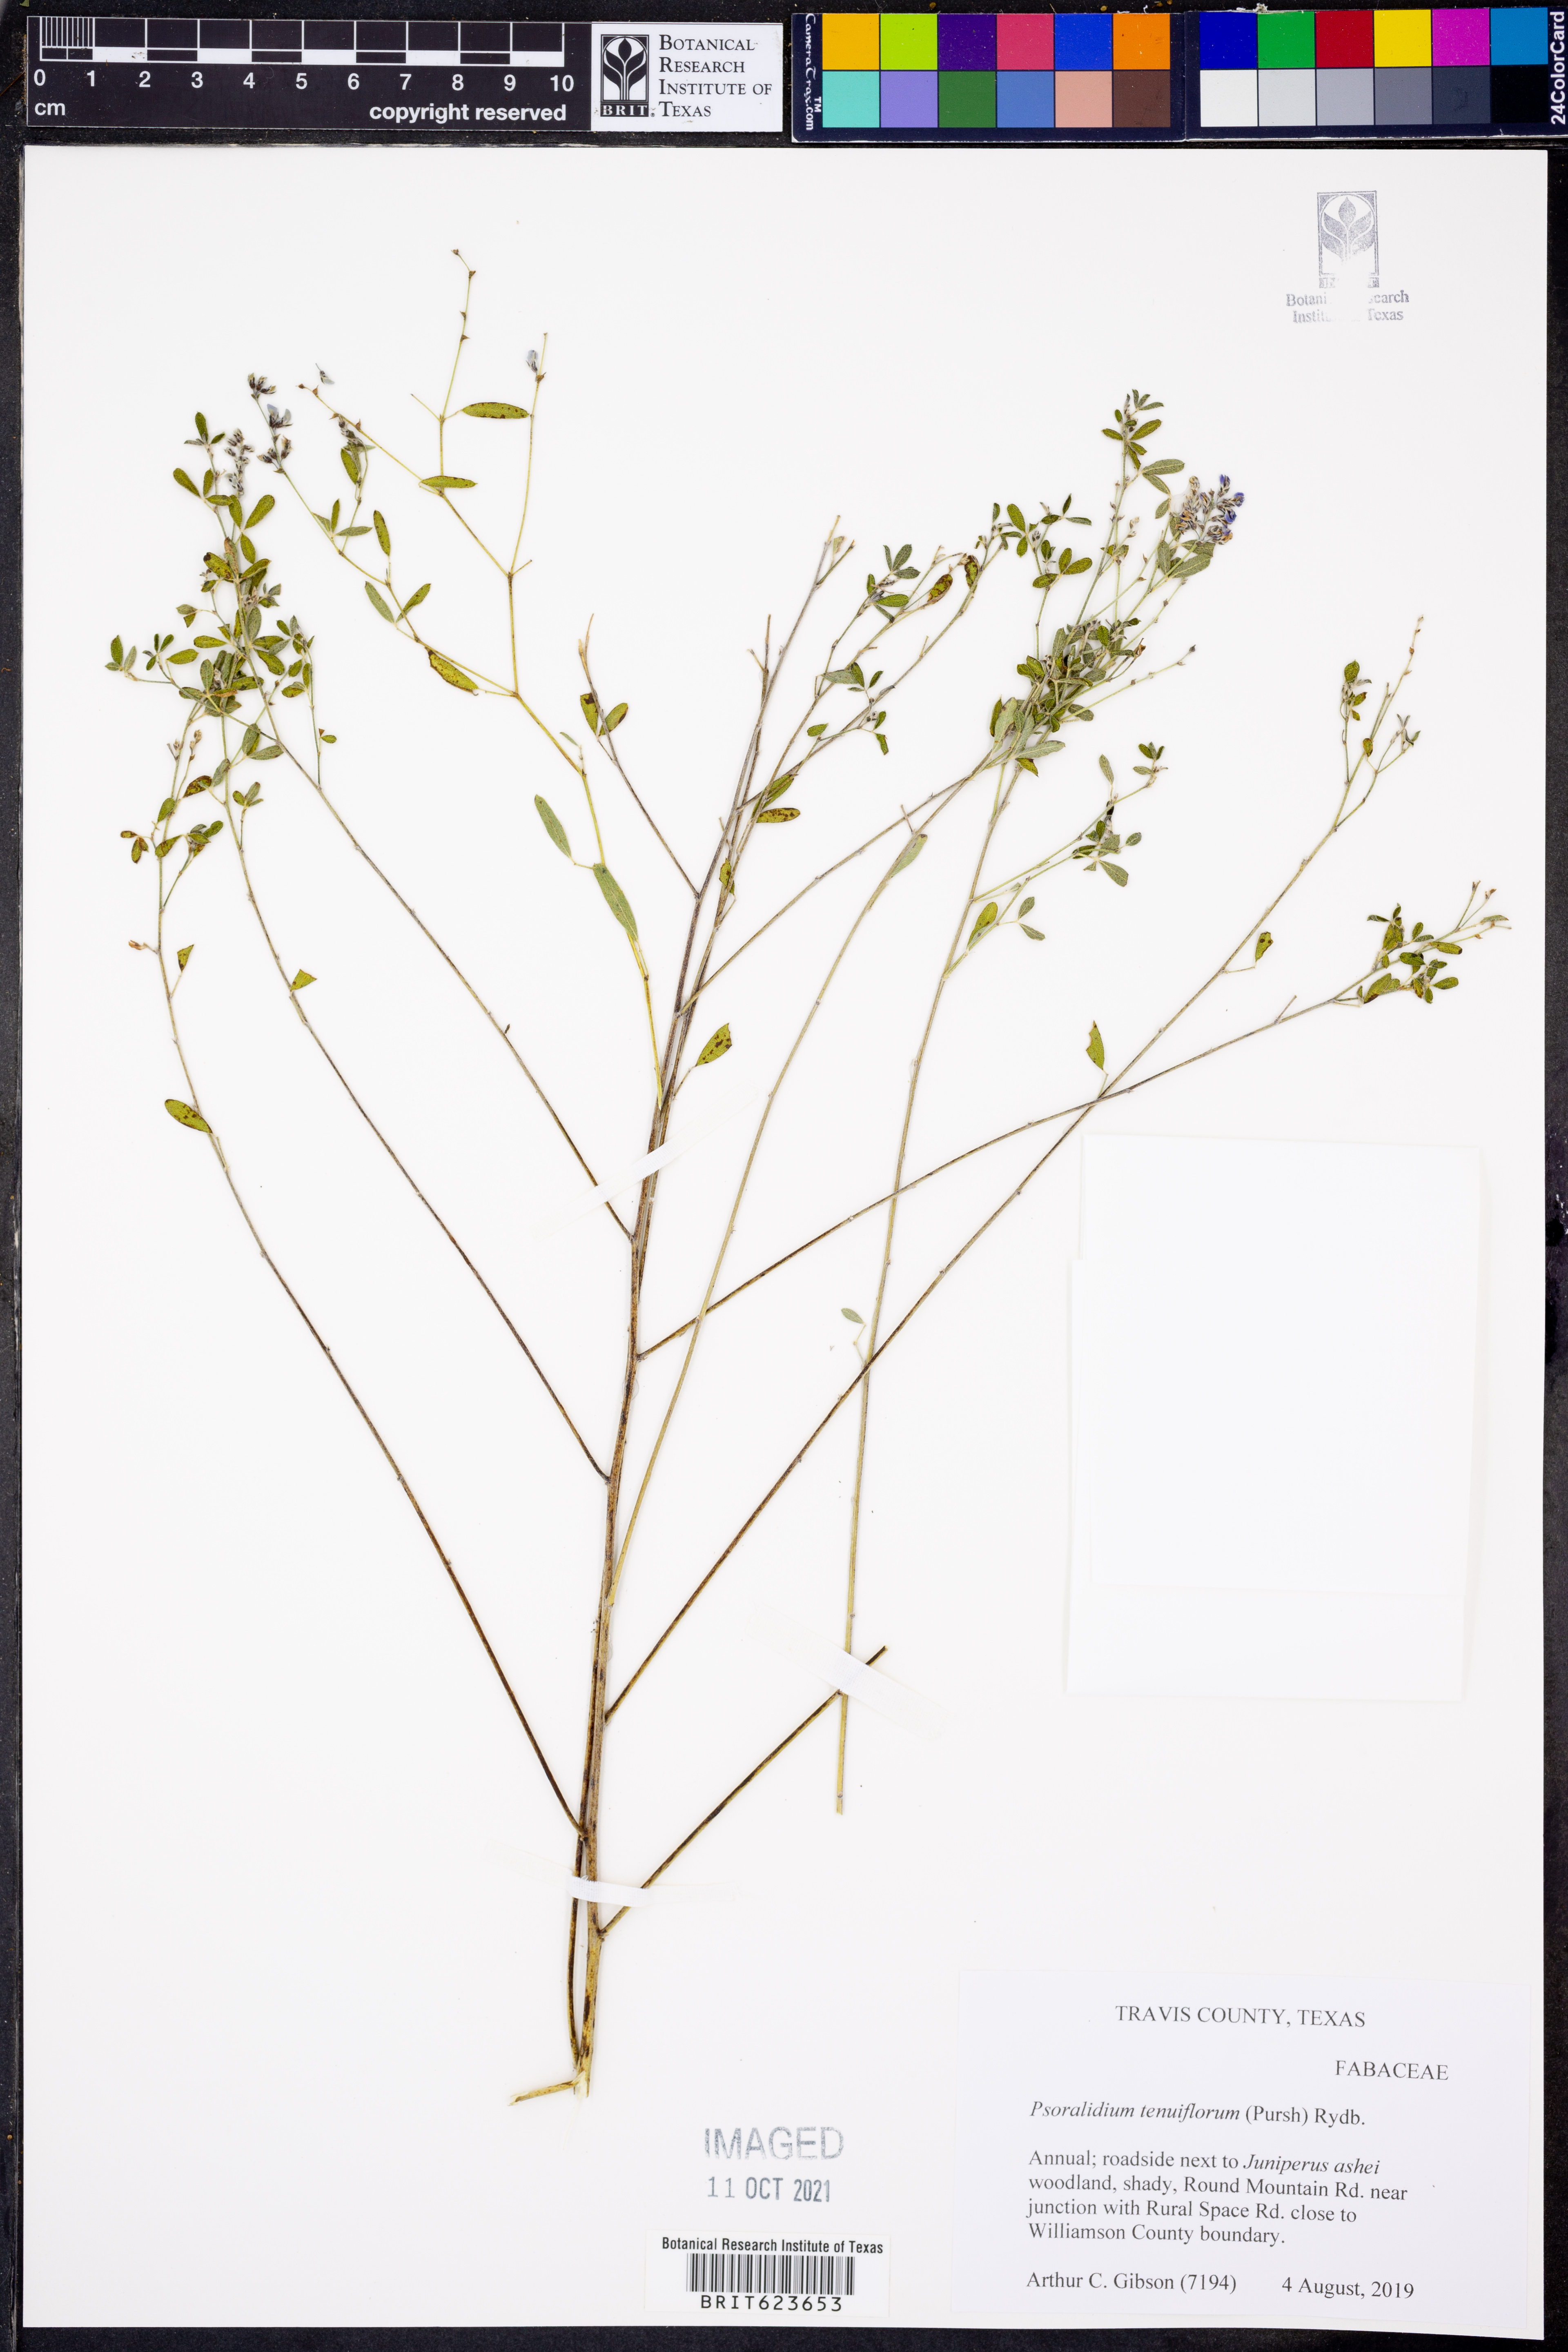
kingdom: Plantae
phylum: Tracheophyta
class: Magnoliopsida
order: Fabales
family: Fabaceae
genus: Pediomelum
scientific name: Pediomelum tenuiflorum
